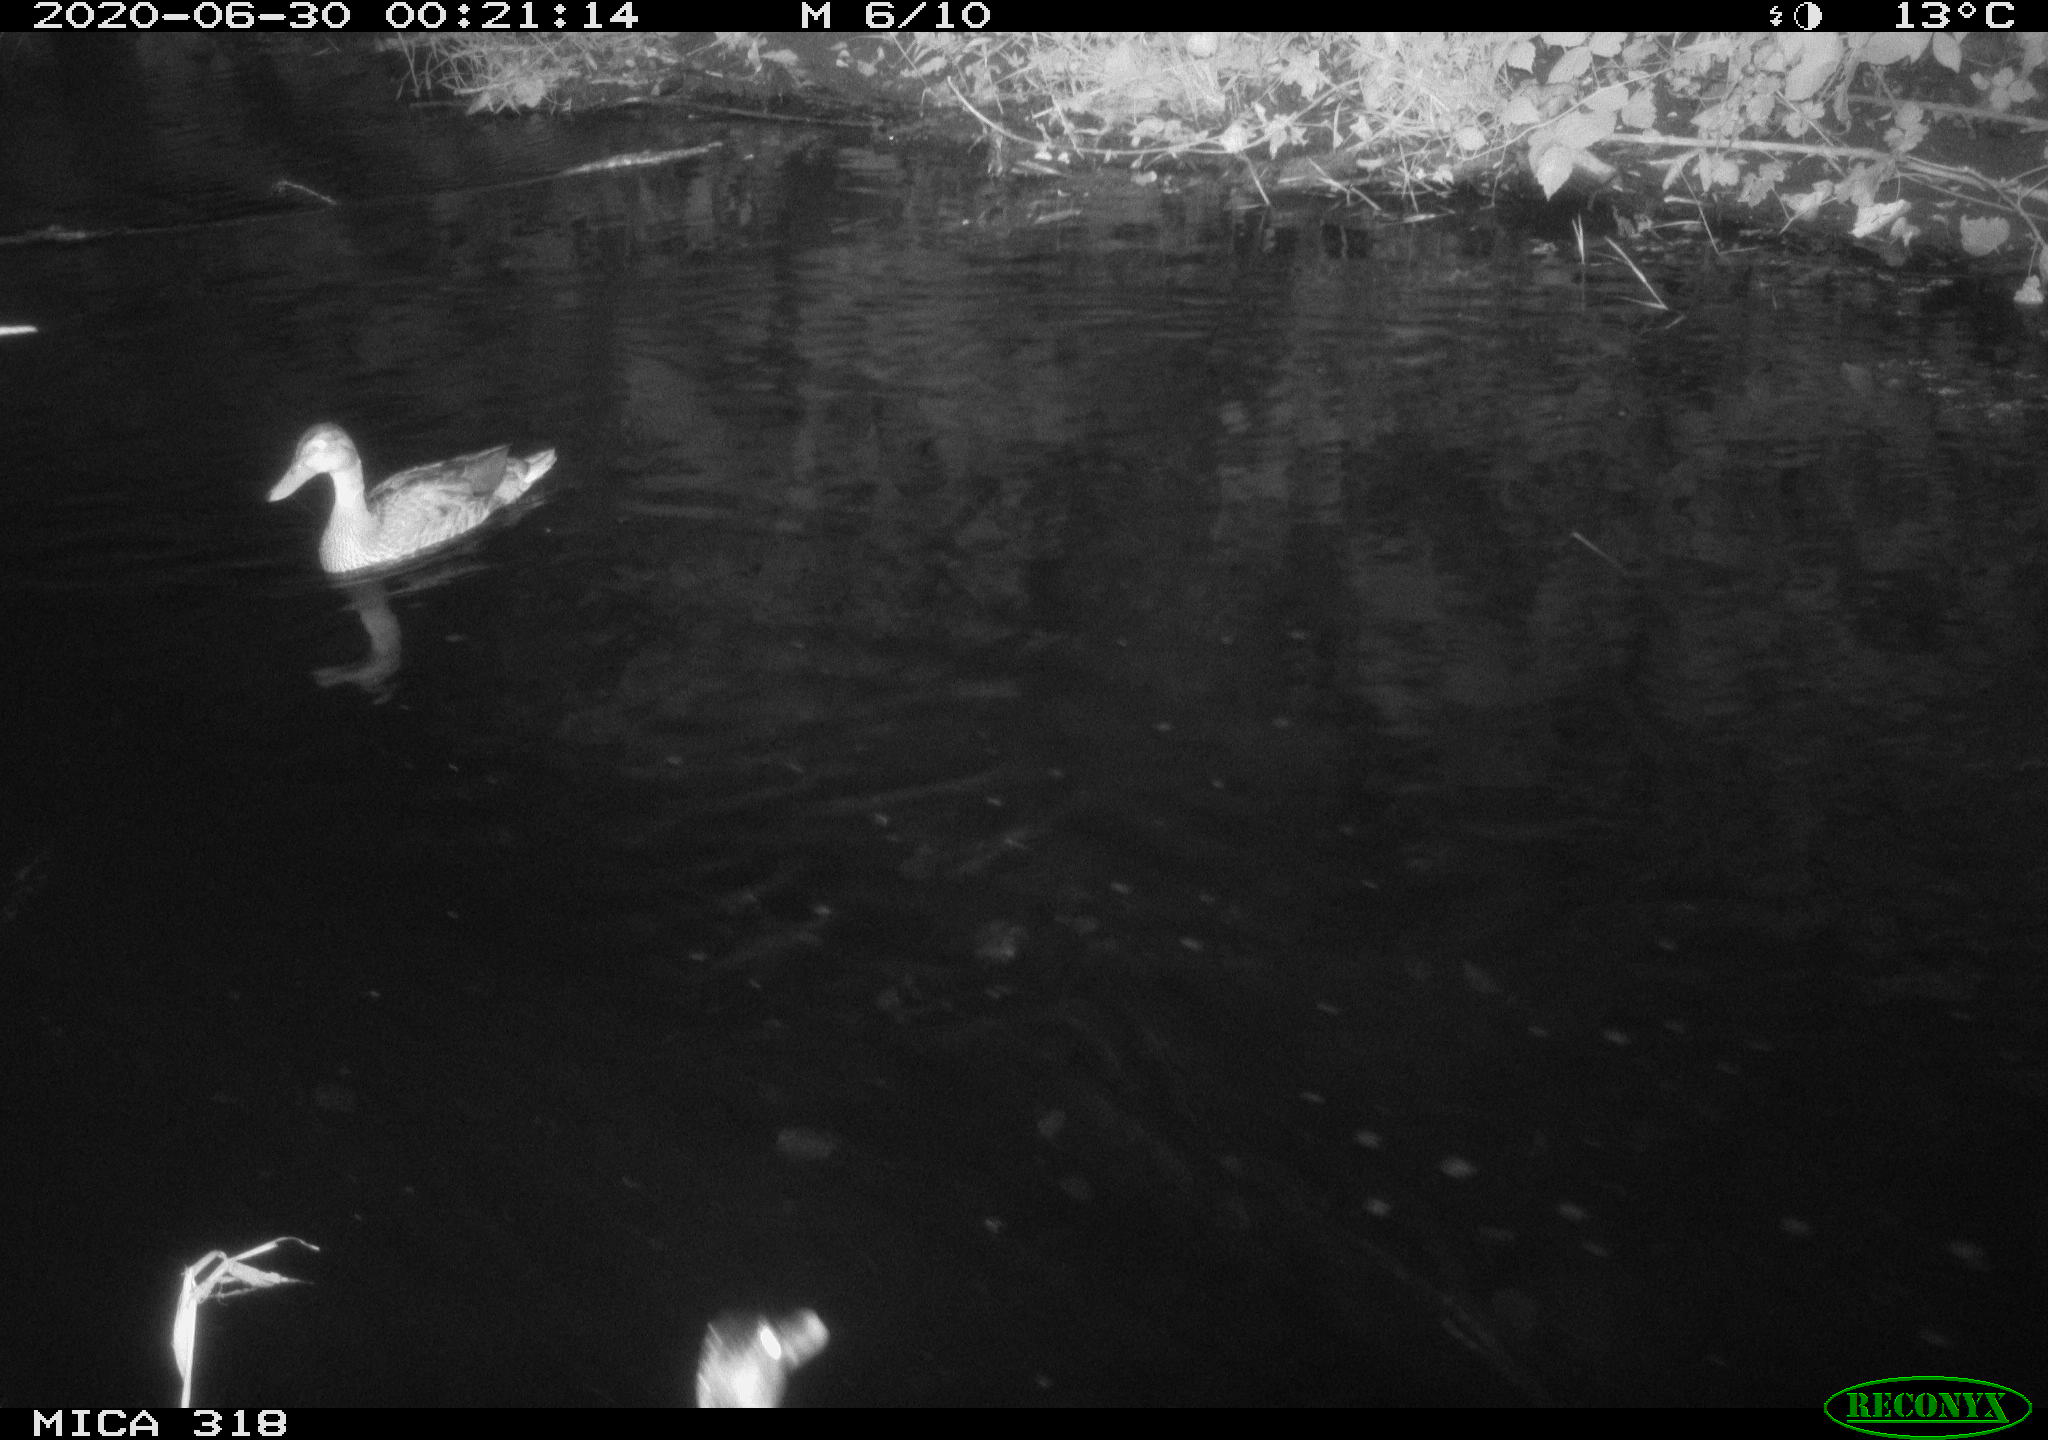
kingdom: Animalia
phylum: Chordata
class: Aves
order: Anseriformes
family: Anatidae
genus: Anas
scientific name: Anas platyrhynchos
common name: Mallard
